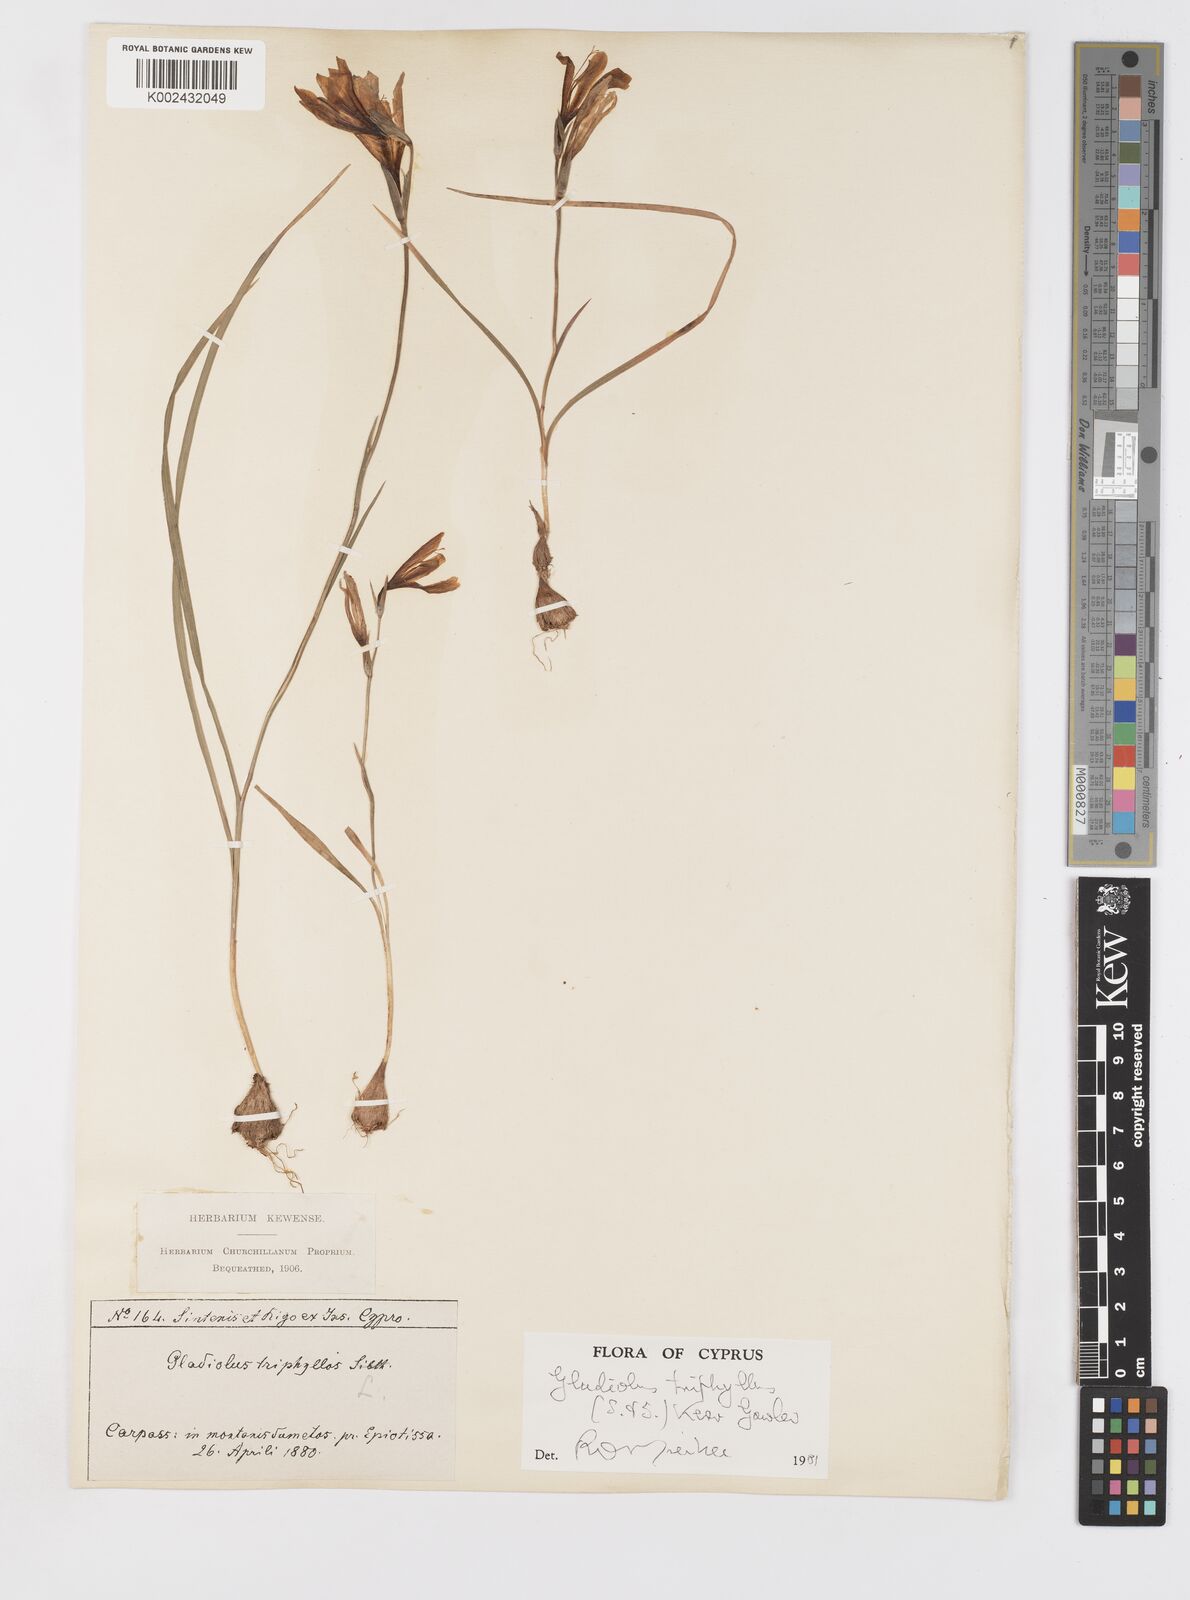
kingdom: Plantae
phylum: Tracheophyta
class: Liliopsida
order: Asparagales
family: Iridaceae
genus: Gladiolus
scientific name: Gladiolus triphyllus
